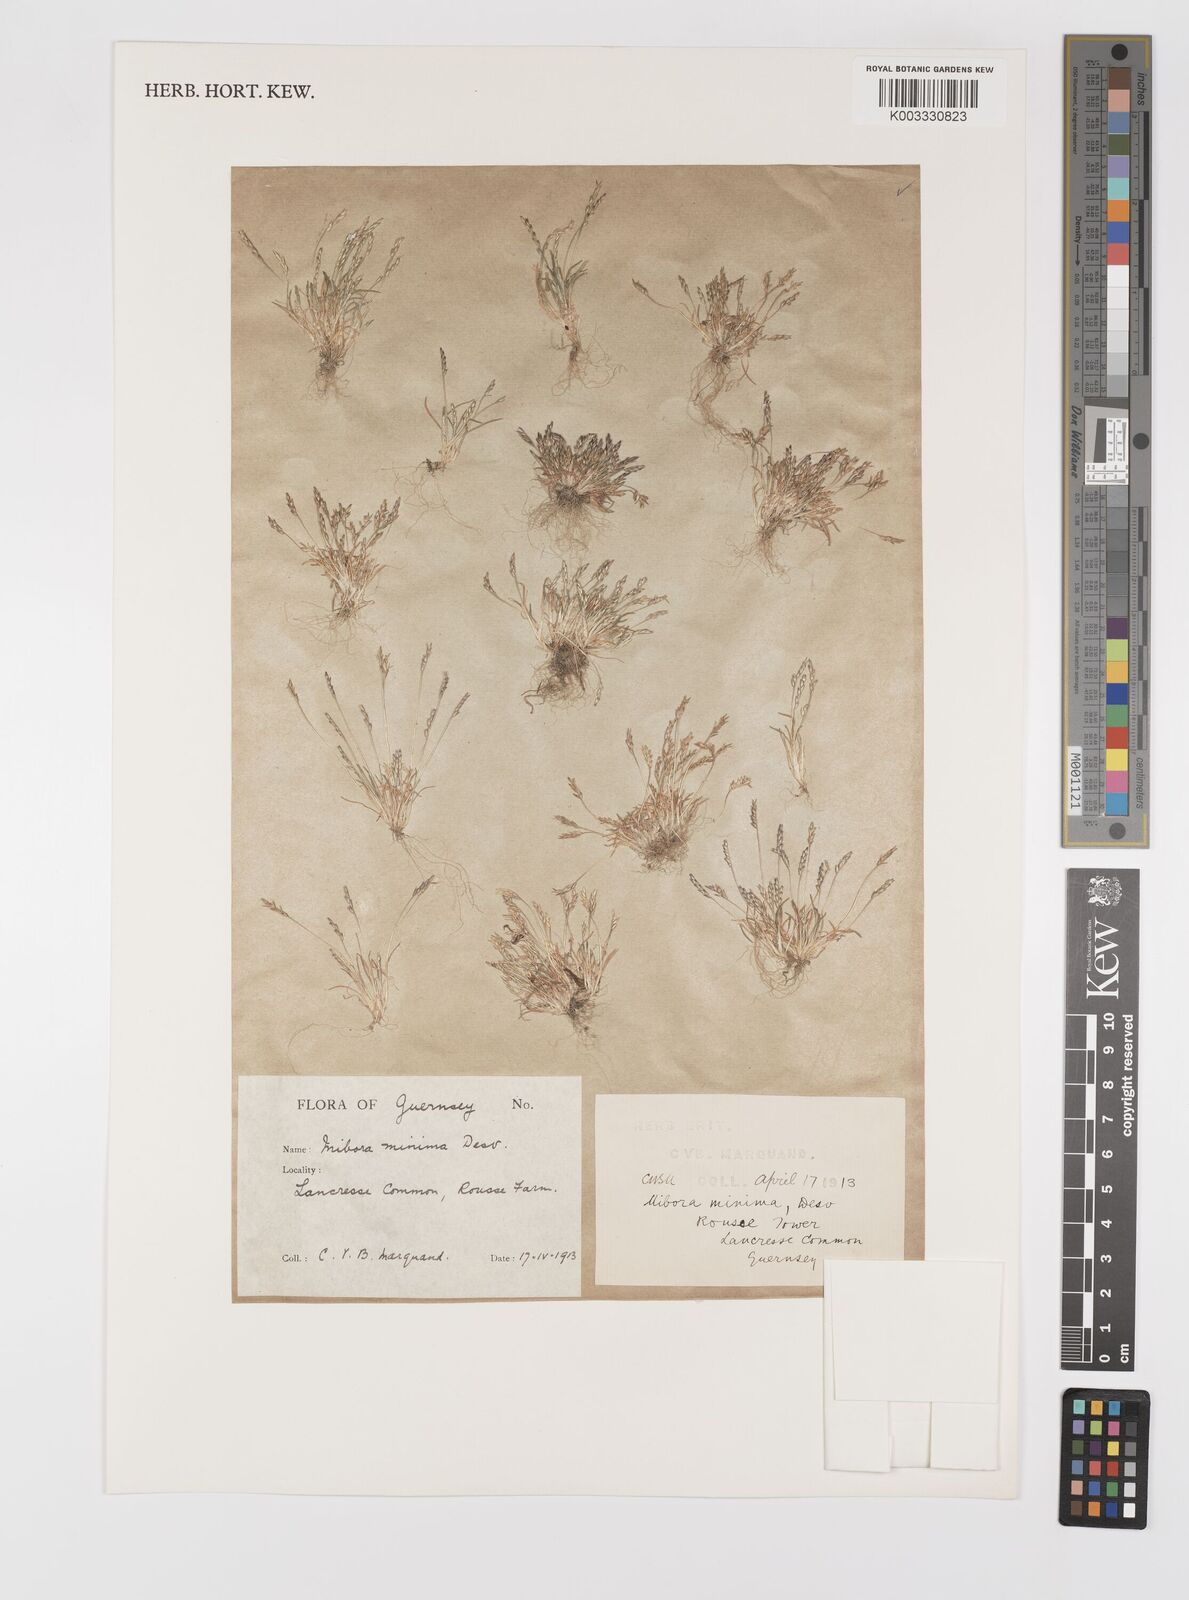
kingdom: Plantae
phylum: Tracheophyta
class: Liliopsida
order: Poales
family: Poaceae
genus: Mibora
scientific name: Mibora minima
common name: Early sand-grass
